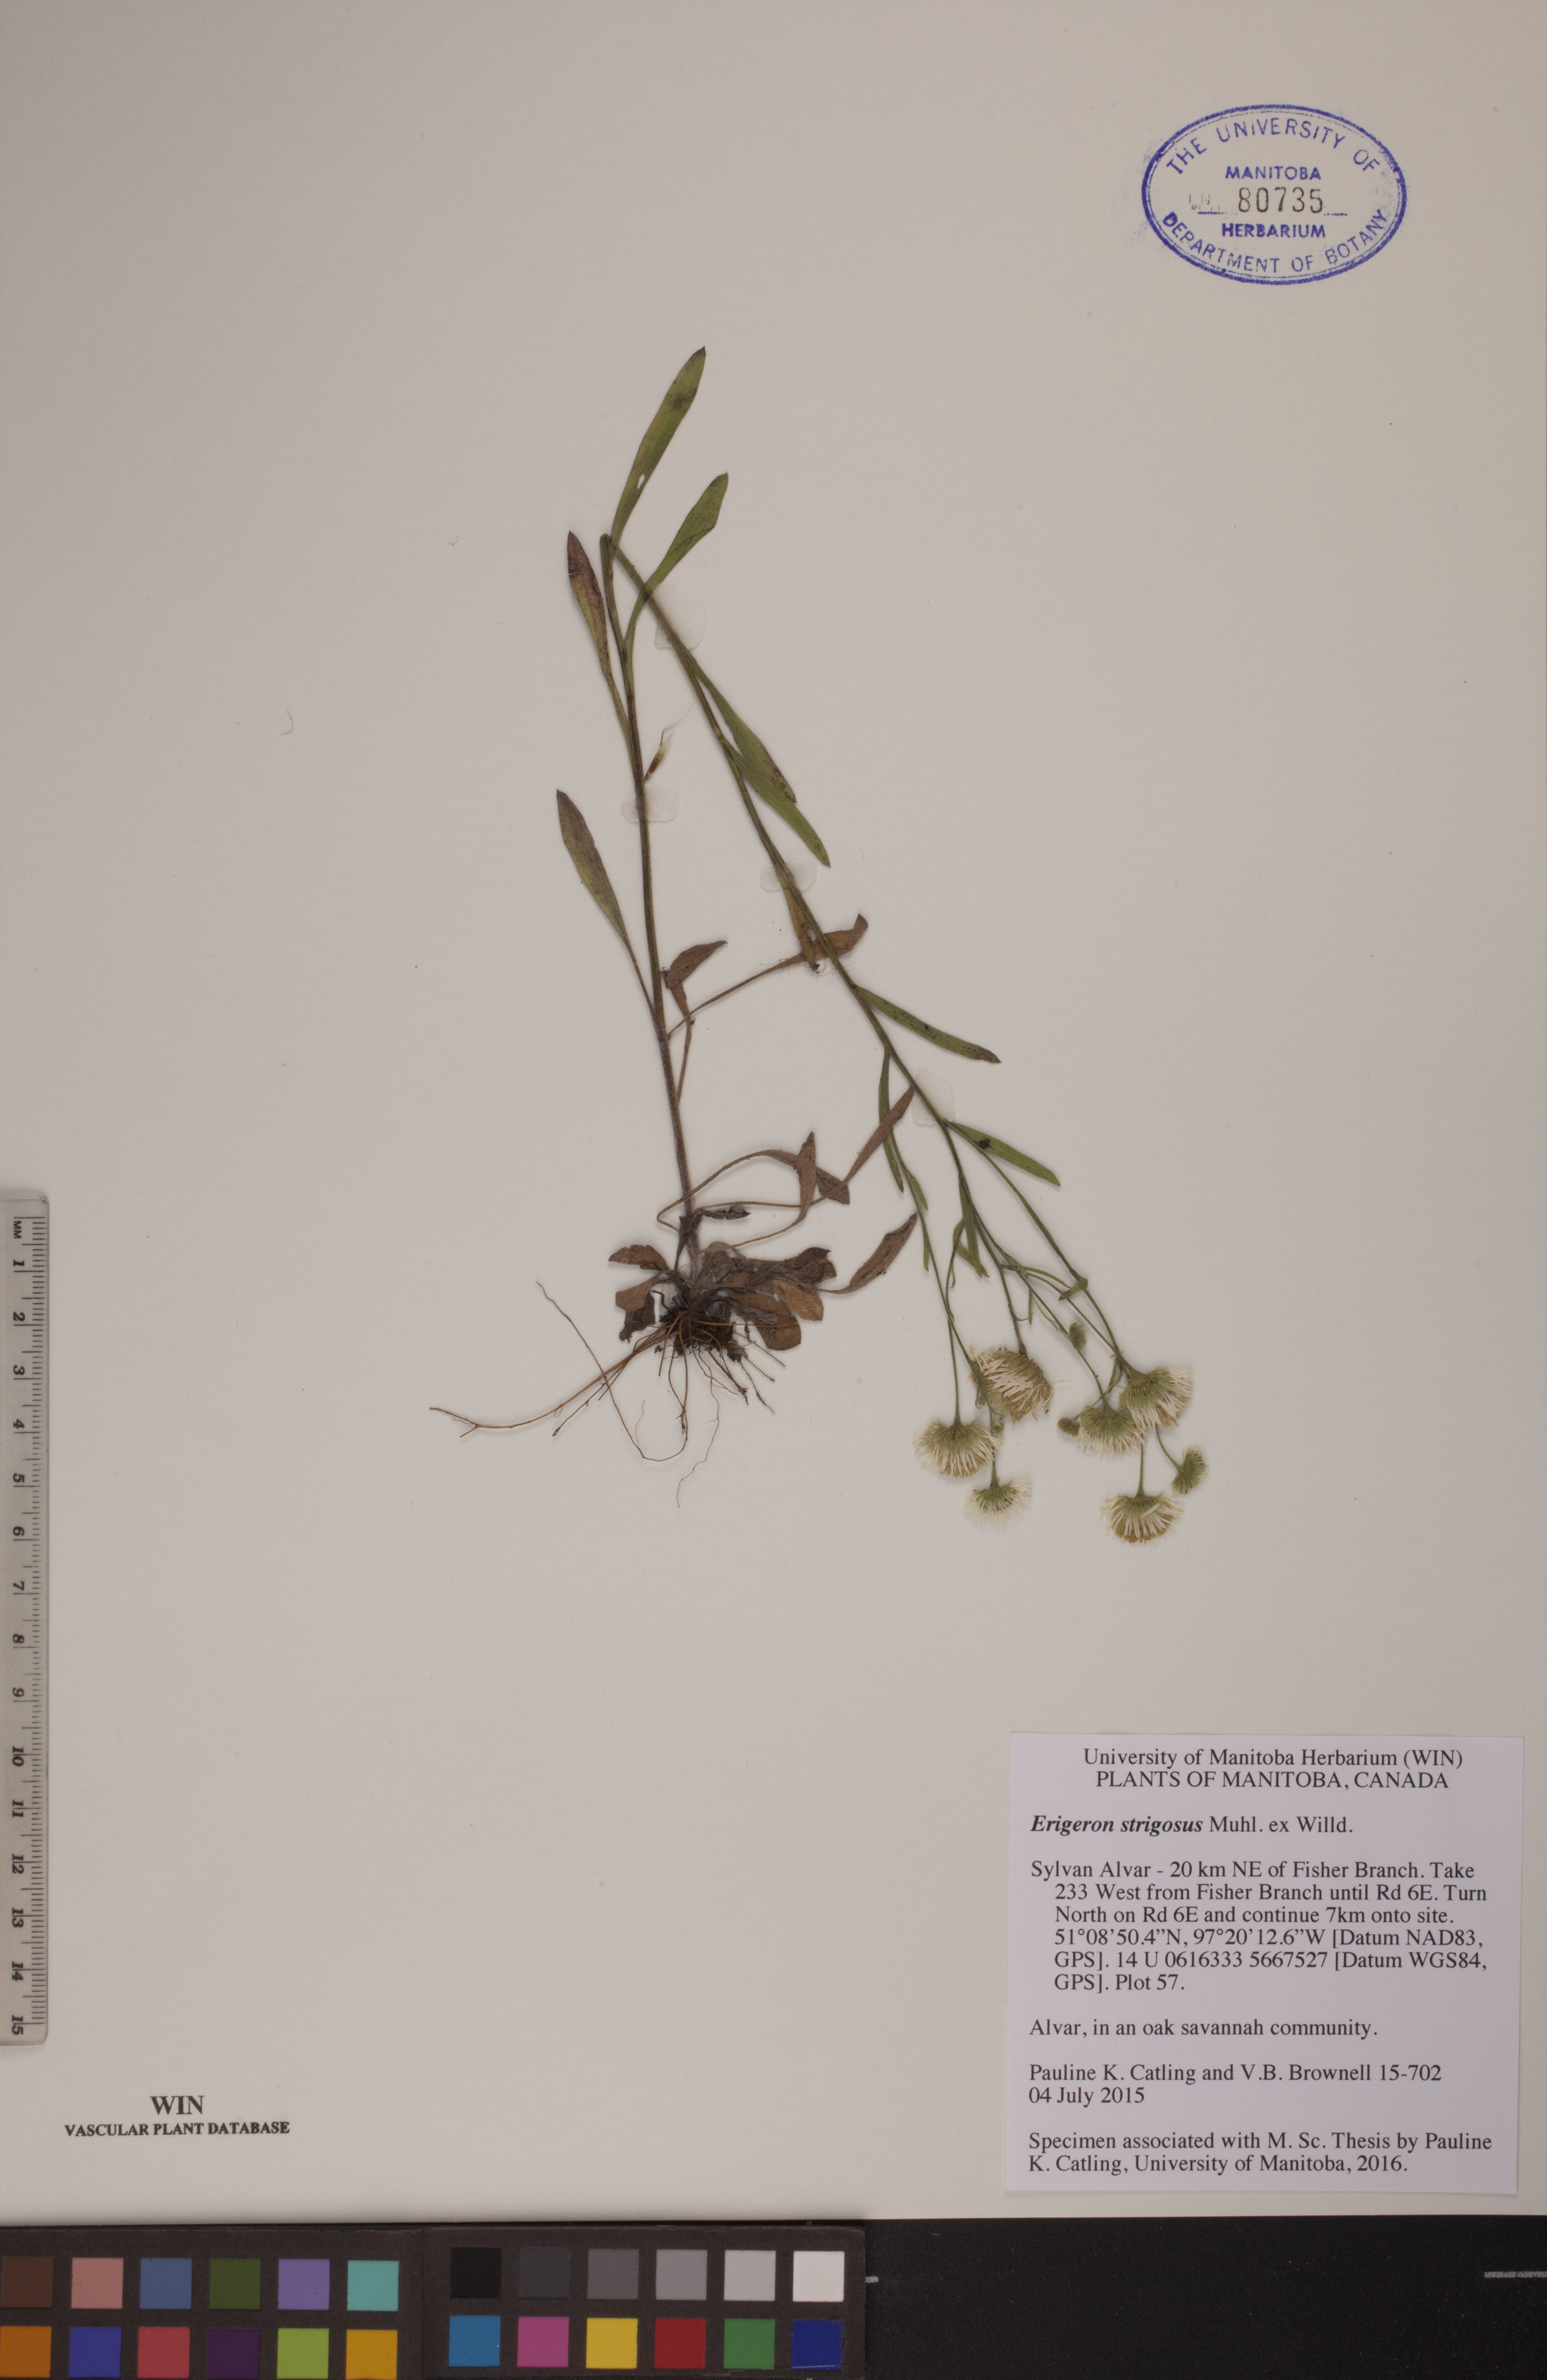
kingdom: Plantae
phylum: Tracheophyta
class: Magnoliopsida
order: Asterales
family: Asteraceae
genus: Erigeron
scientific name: Erigeron strigosus
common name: Common eastern fleabane
